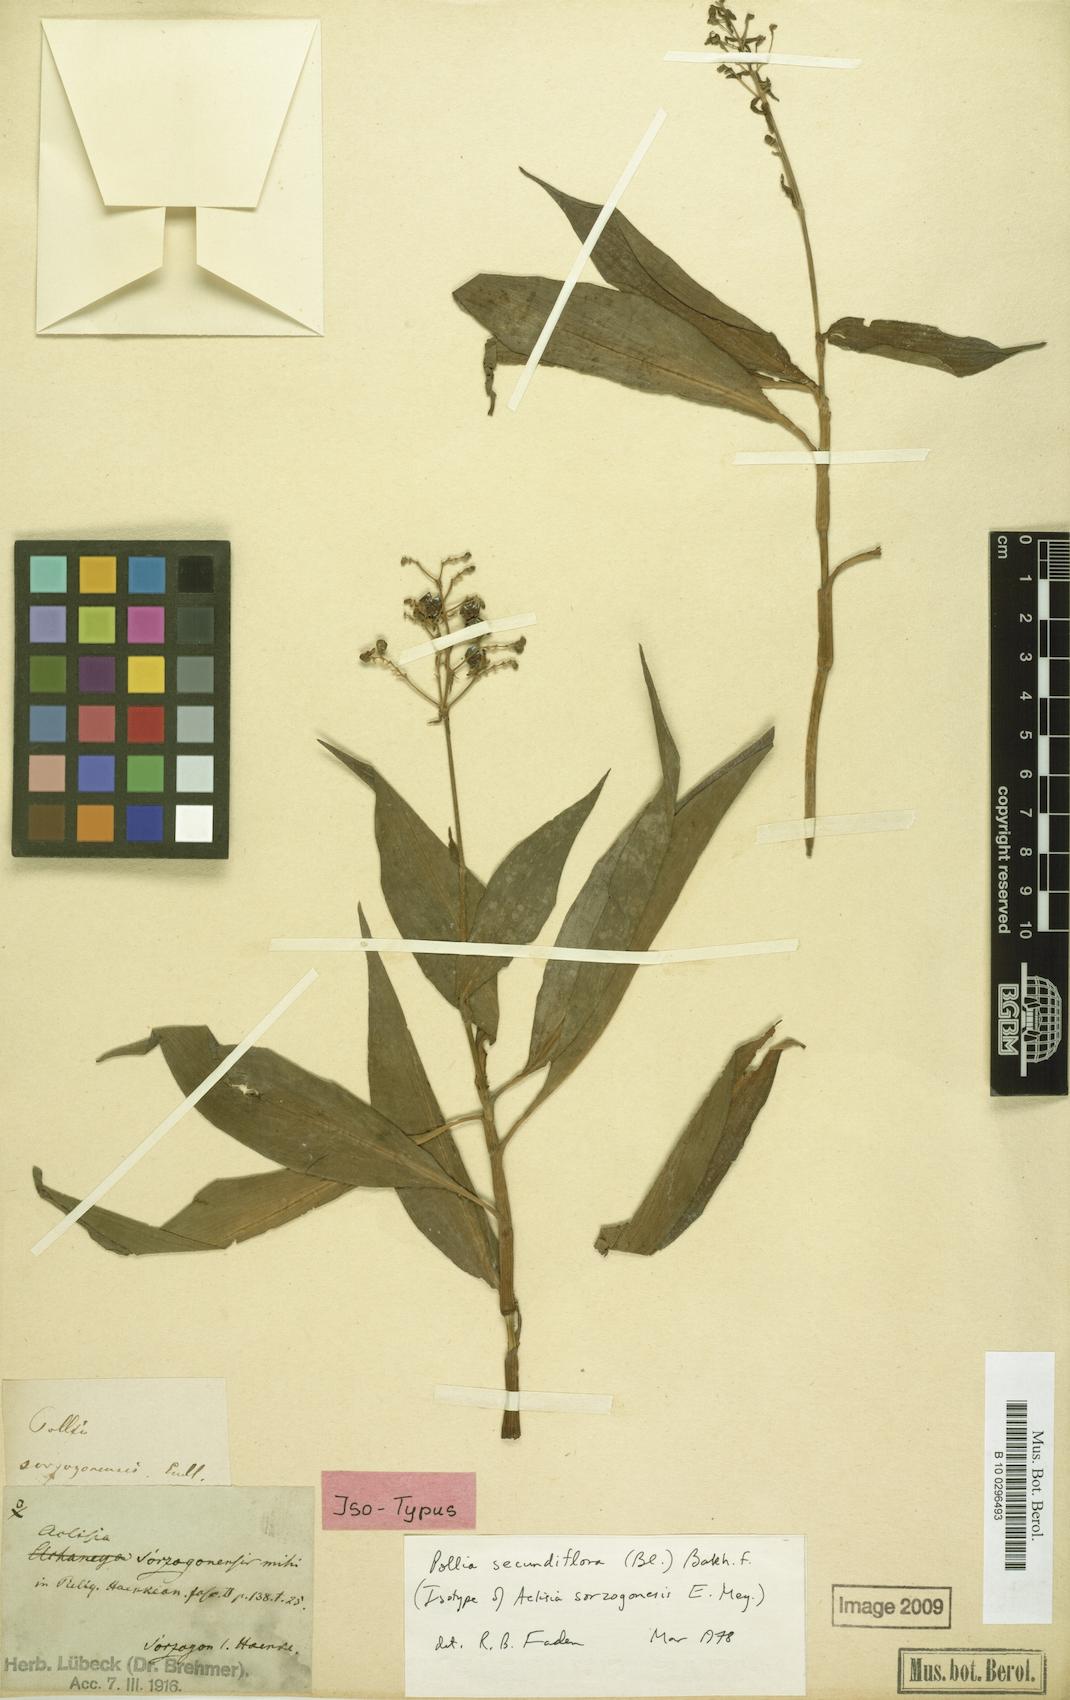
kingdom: Plantae
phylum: Tracheophyta
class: Liliopsida
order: Commelinales
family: Commelinaceae
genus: Pollia
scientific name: Pollia secundiflora
